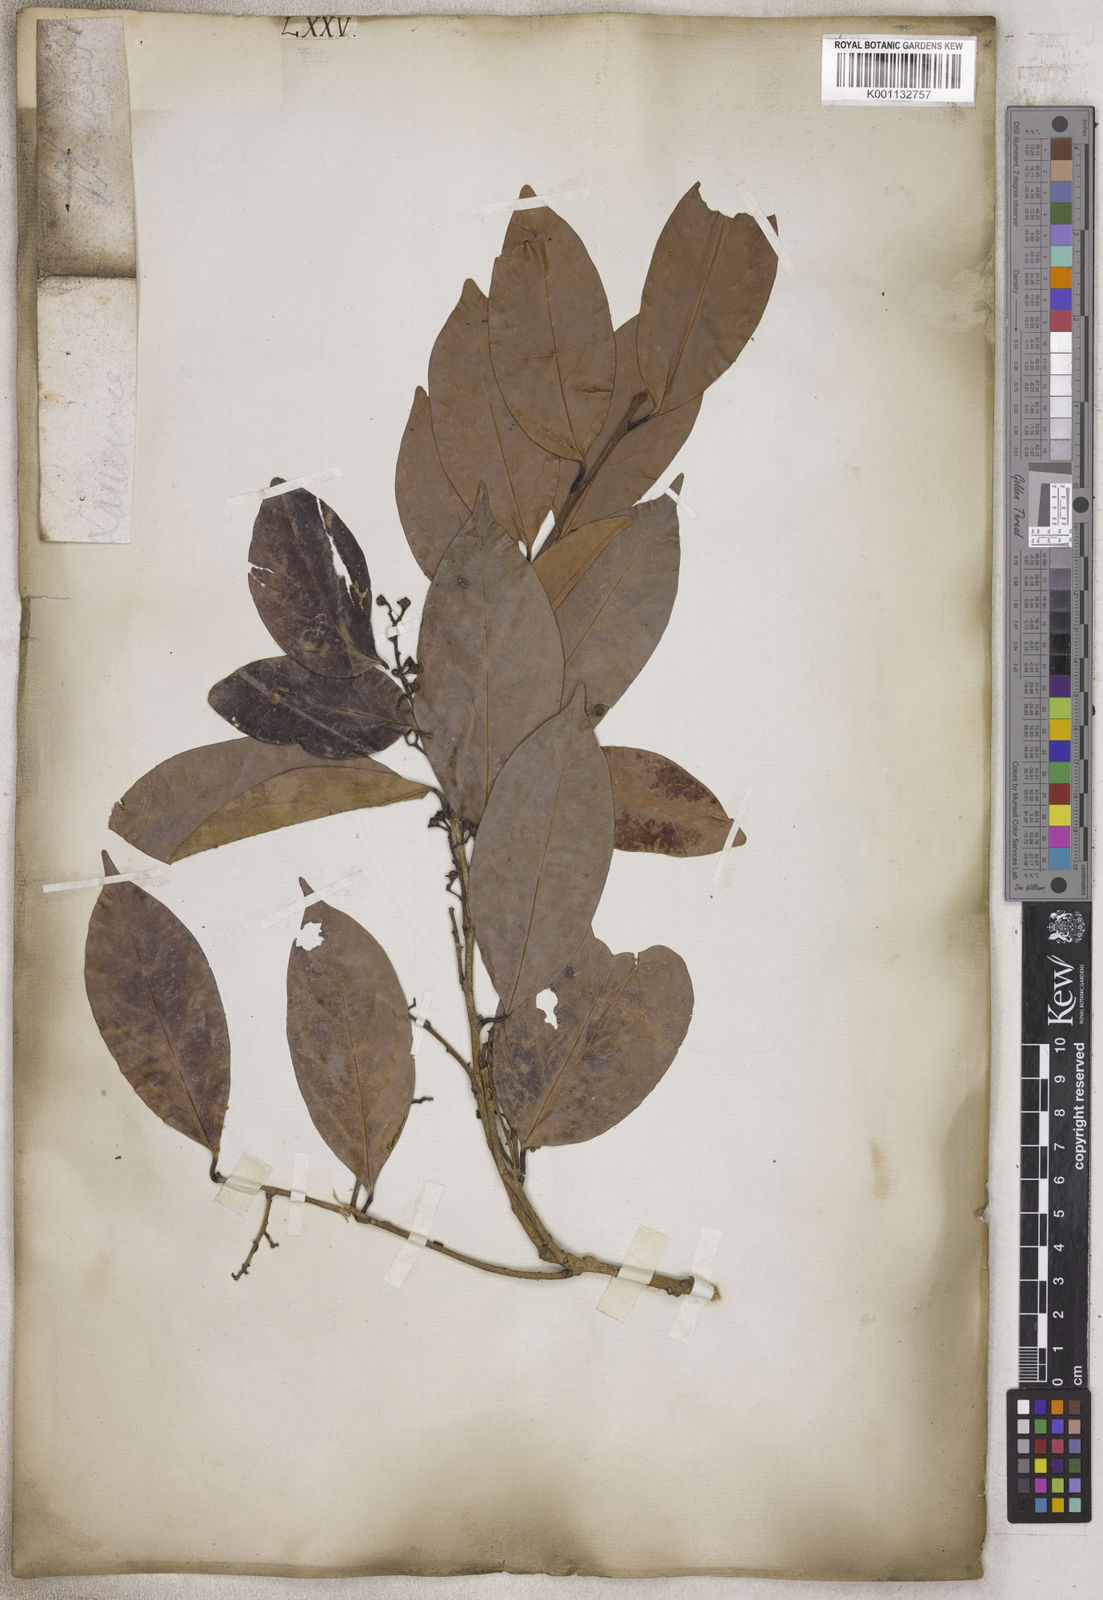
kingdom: Plantae
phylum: Tracheophyta
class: Magnoliopsida
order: Laurales
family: Lauraceae
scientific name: Lauraceae
